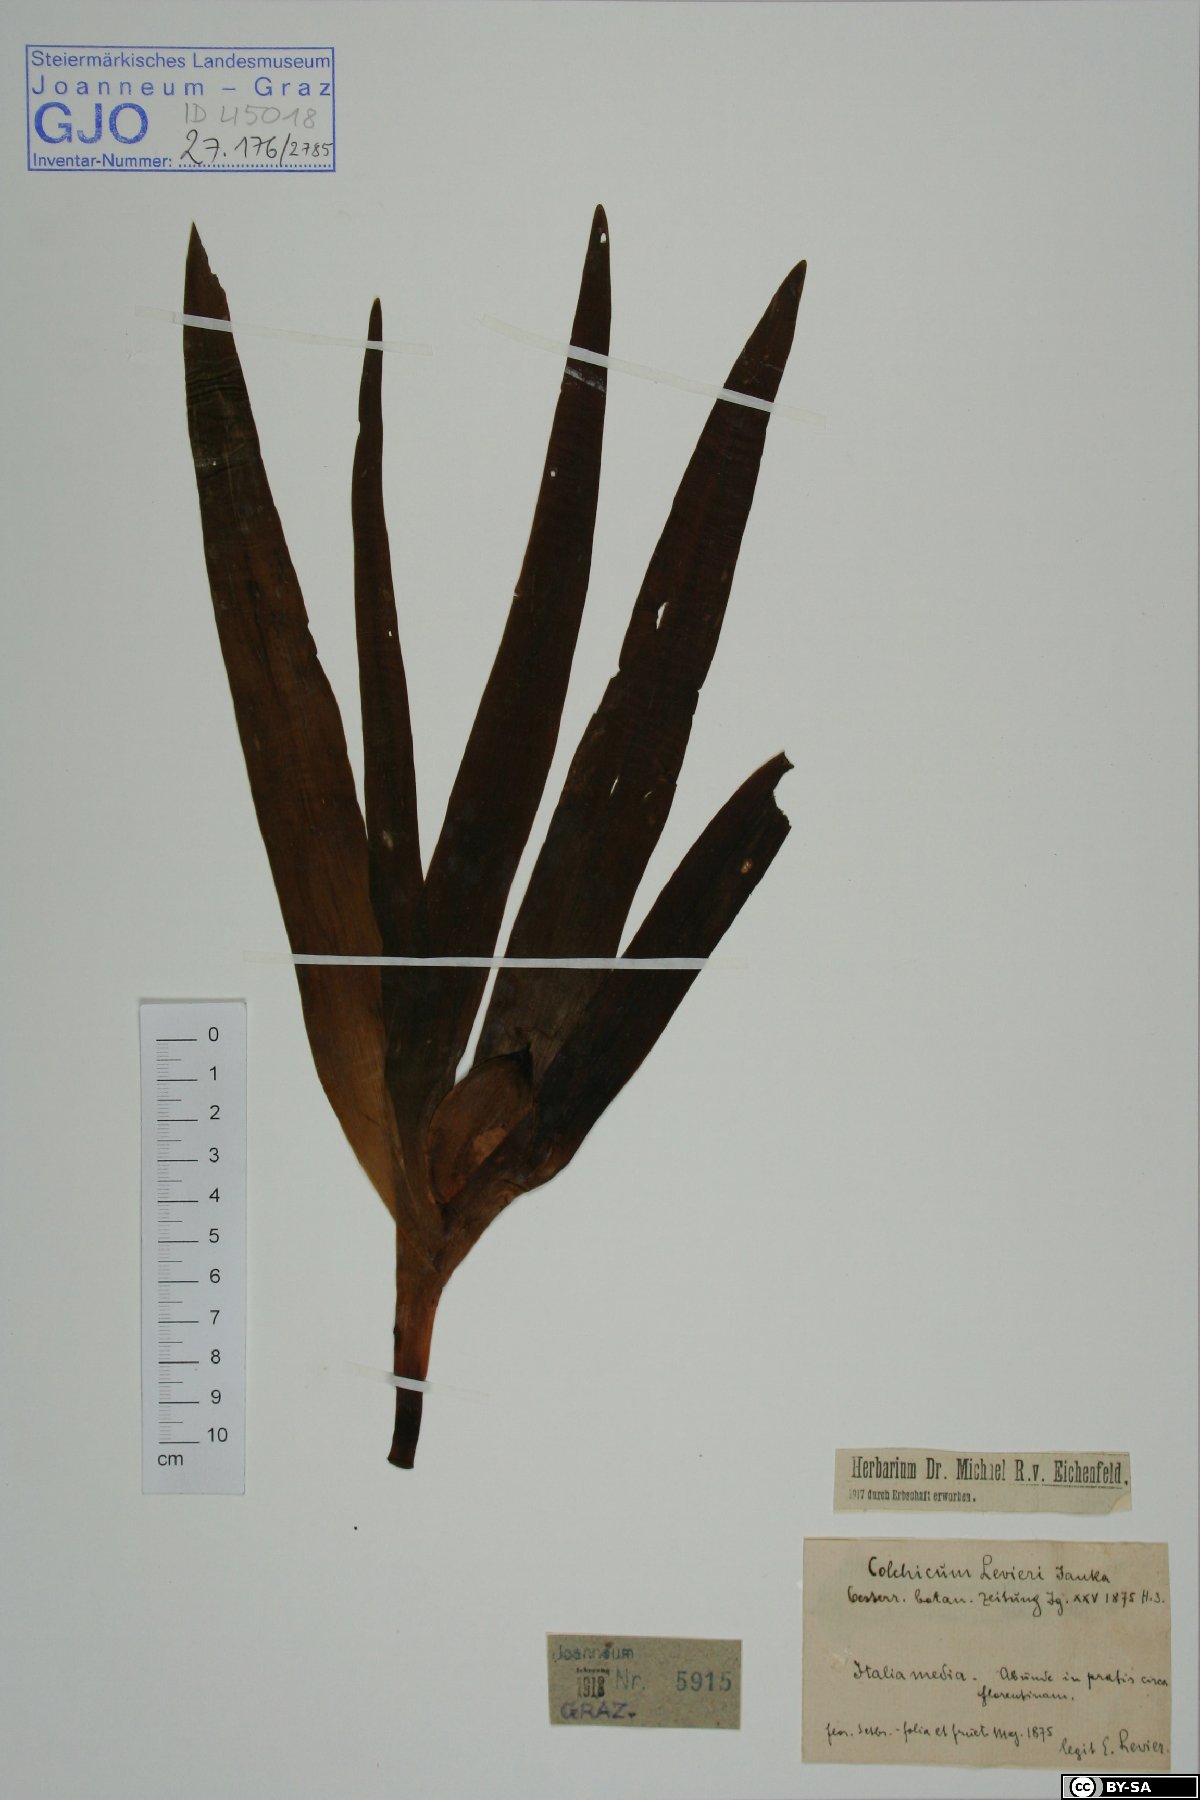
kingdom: Plantae
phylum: Tracheophyta
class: Liliopsida
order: Liliales
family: Colchicaceae
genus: Colchicum
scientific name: Colchicum lusitanum
